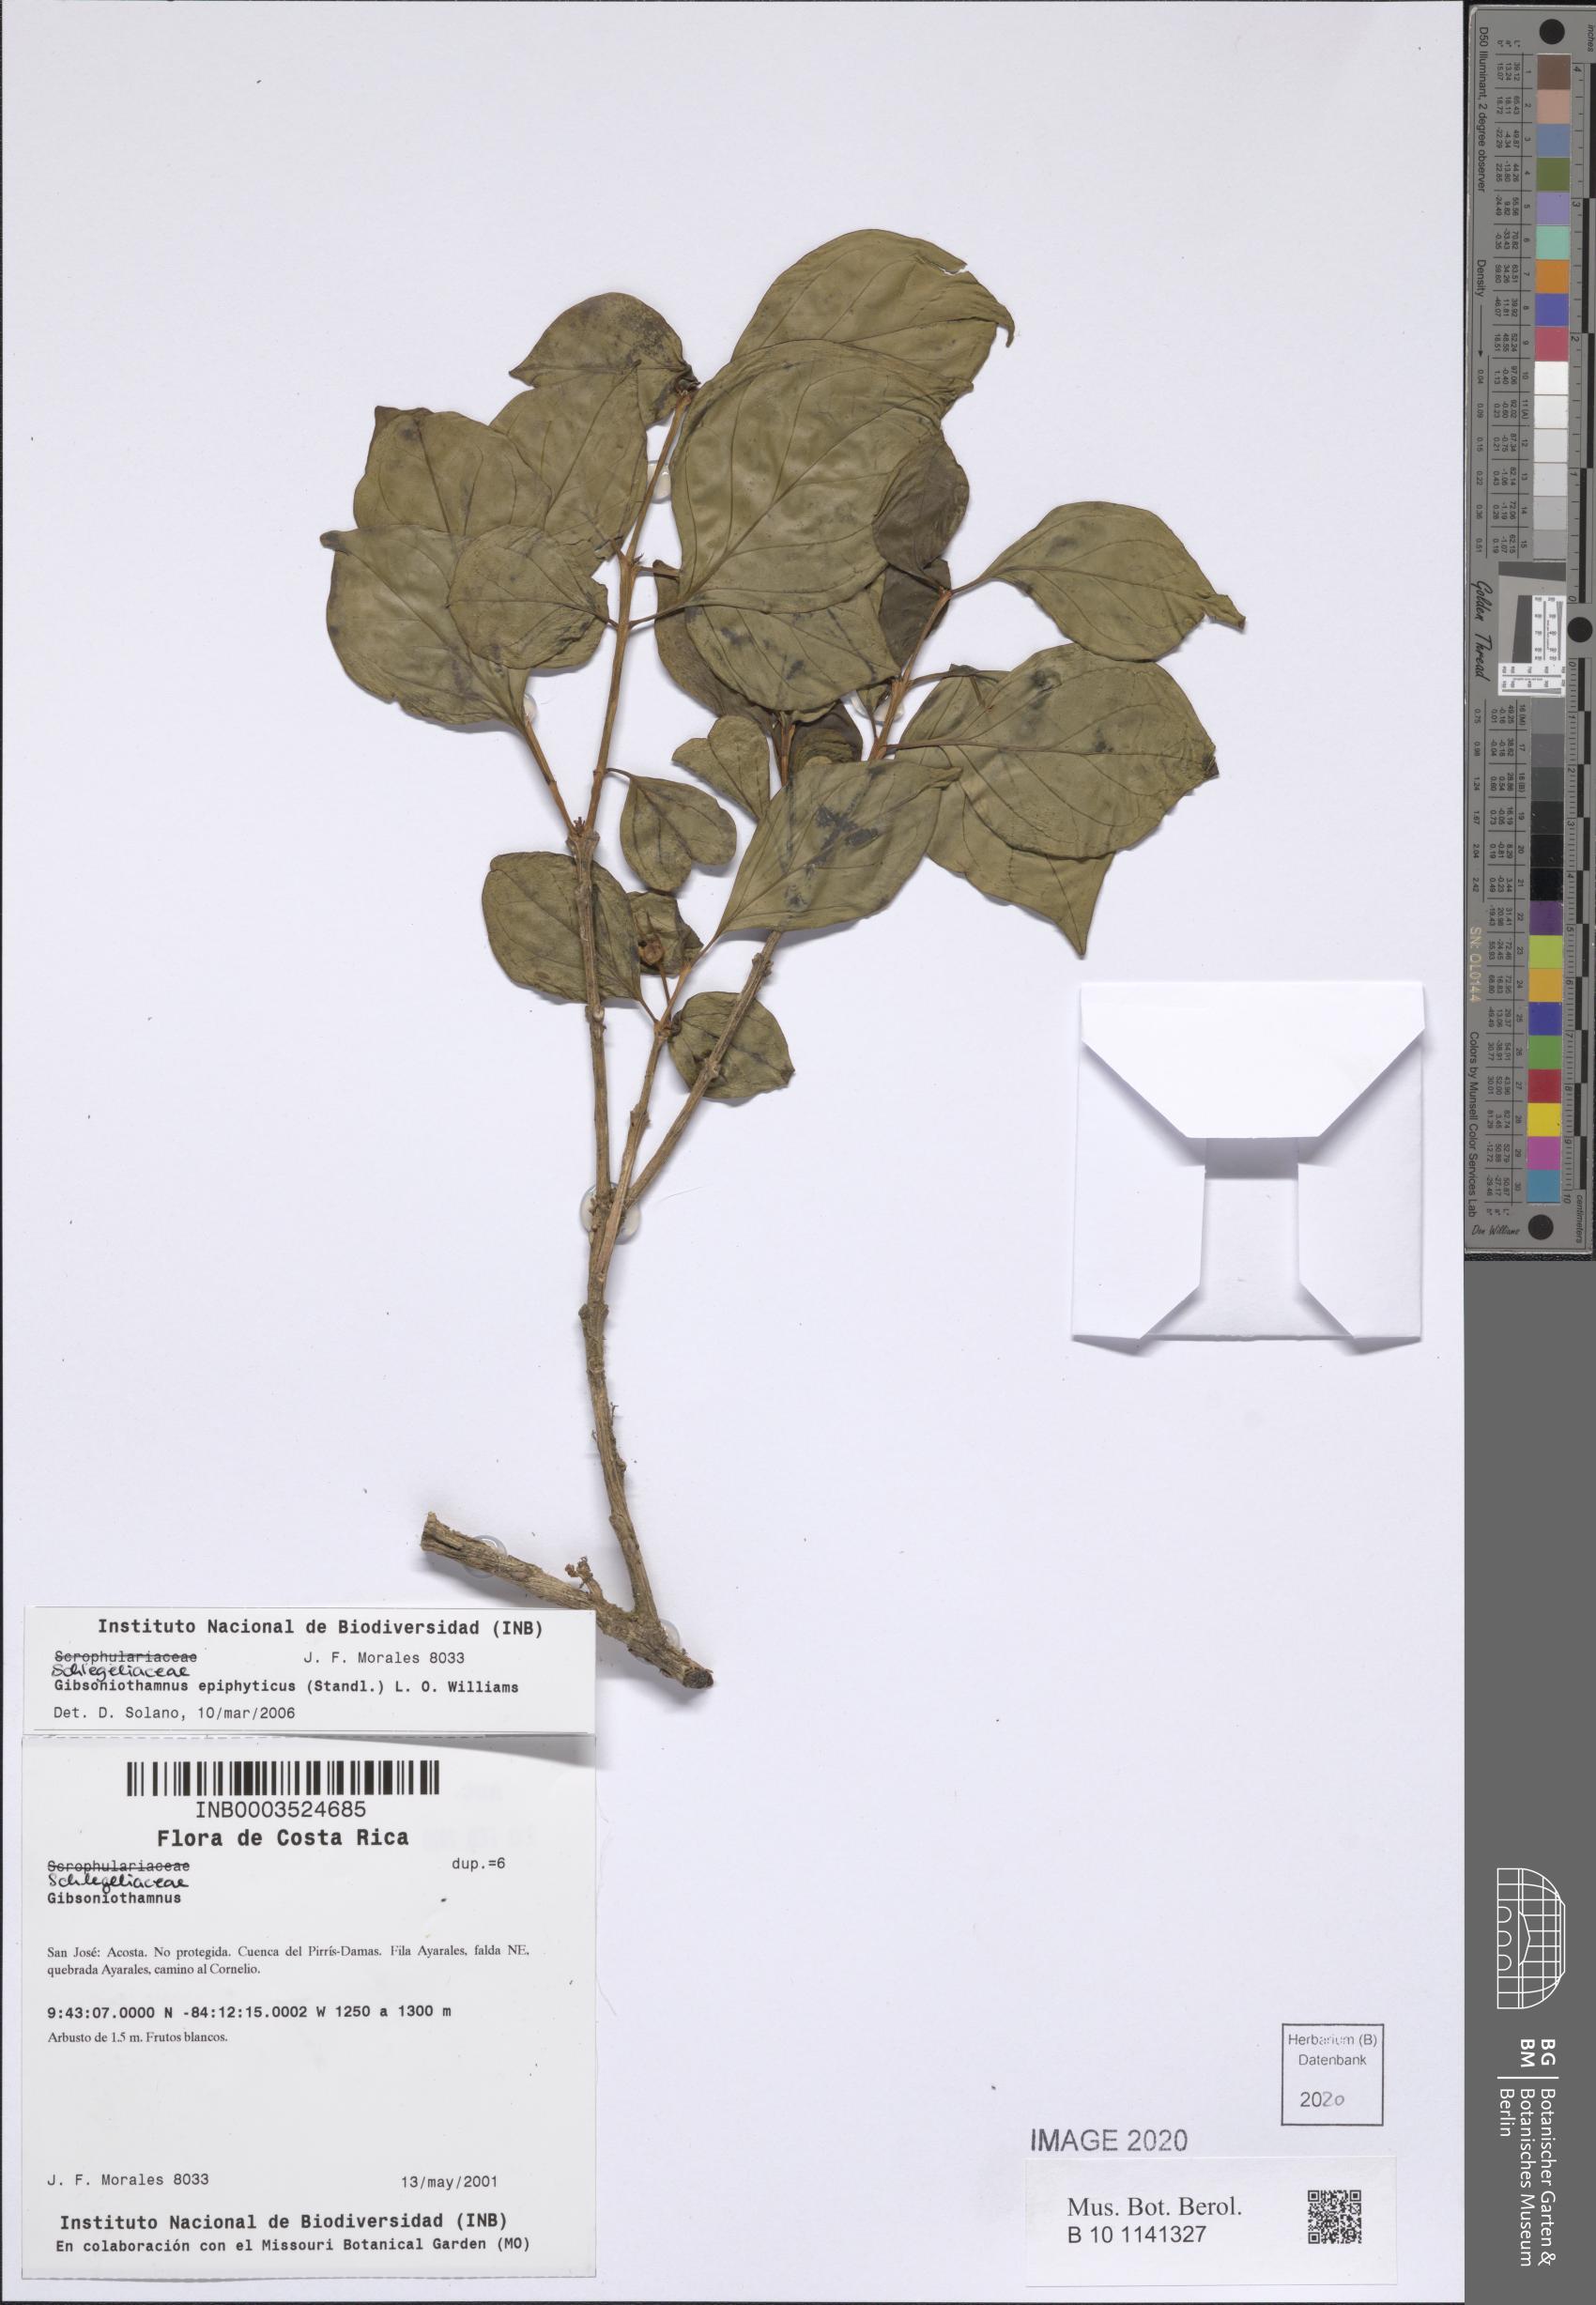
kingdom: Plantae
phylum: Tracheophyta
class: Magnoliopsida
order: Lamiales
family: Schlegeliaceae
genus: Gibsoniothamnus
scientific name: Gibsoniothamnus epiphyticus
